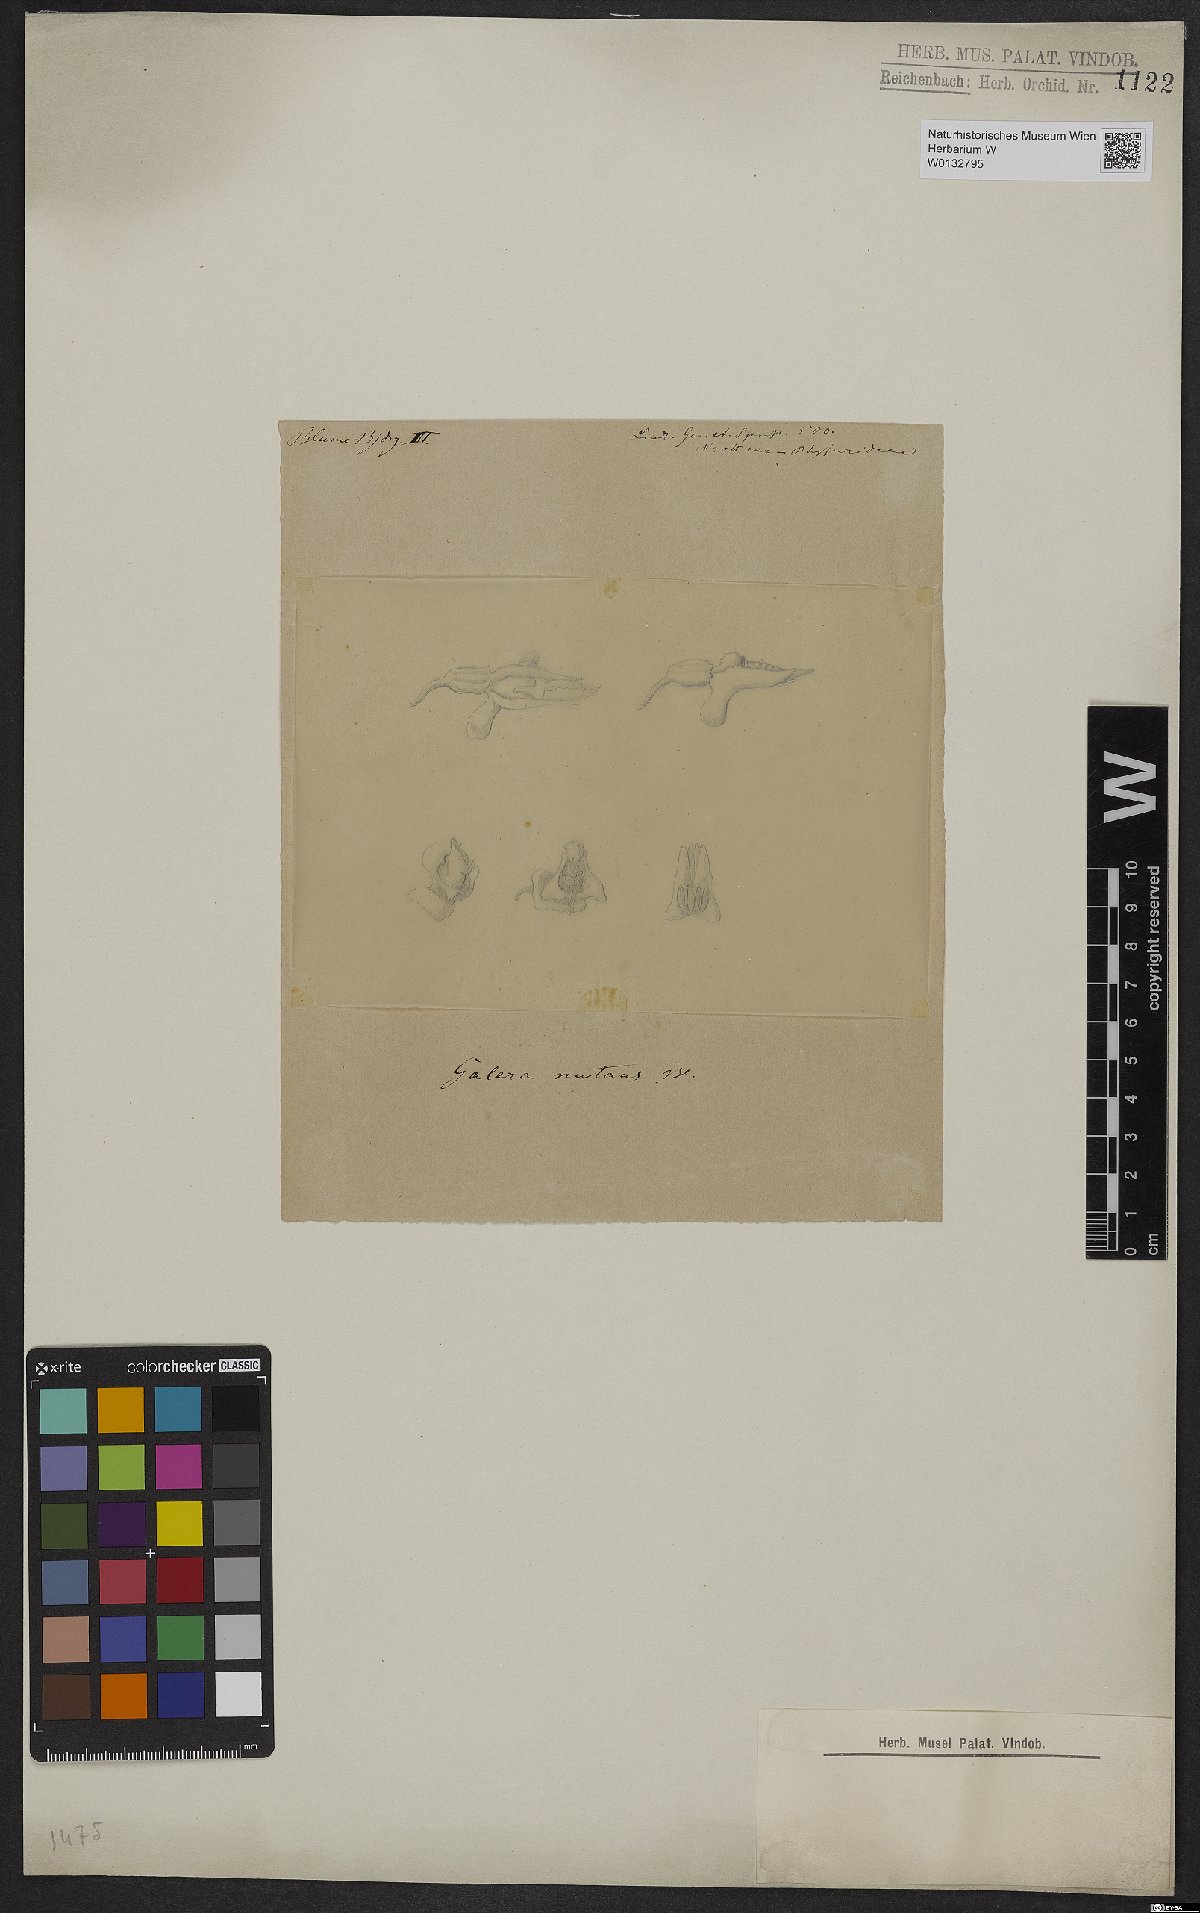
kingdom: Plantae
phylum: Tracheophyta
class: Liliopsida
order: Asparagales
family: Orchidaceae
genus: Epipogium
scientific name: Epipogium roseum
